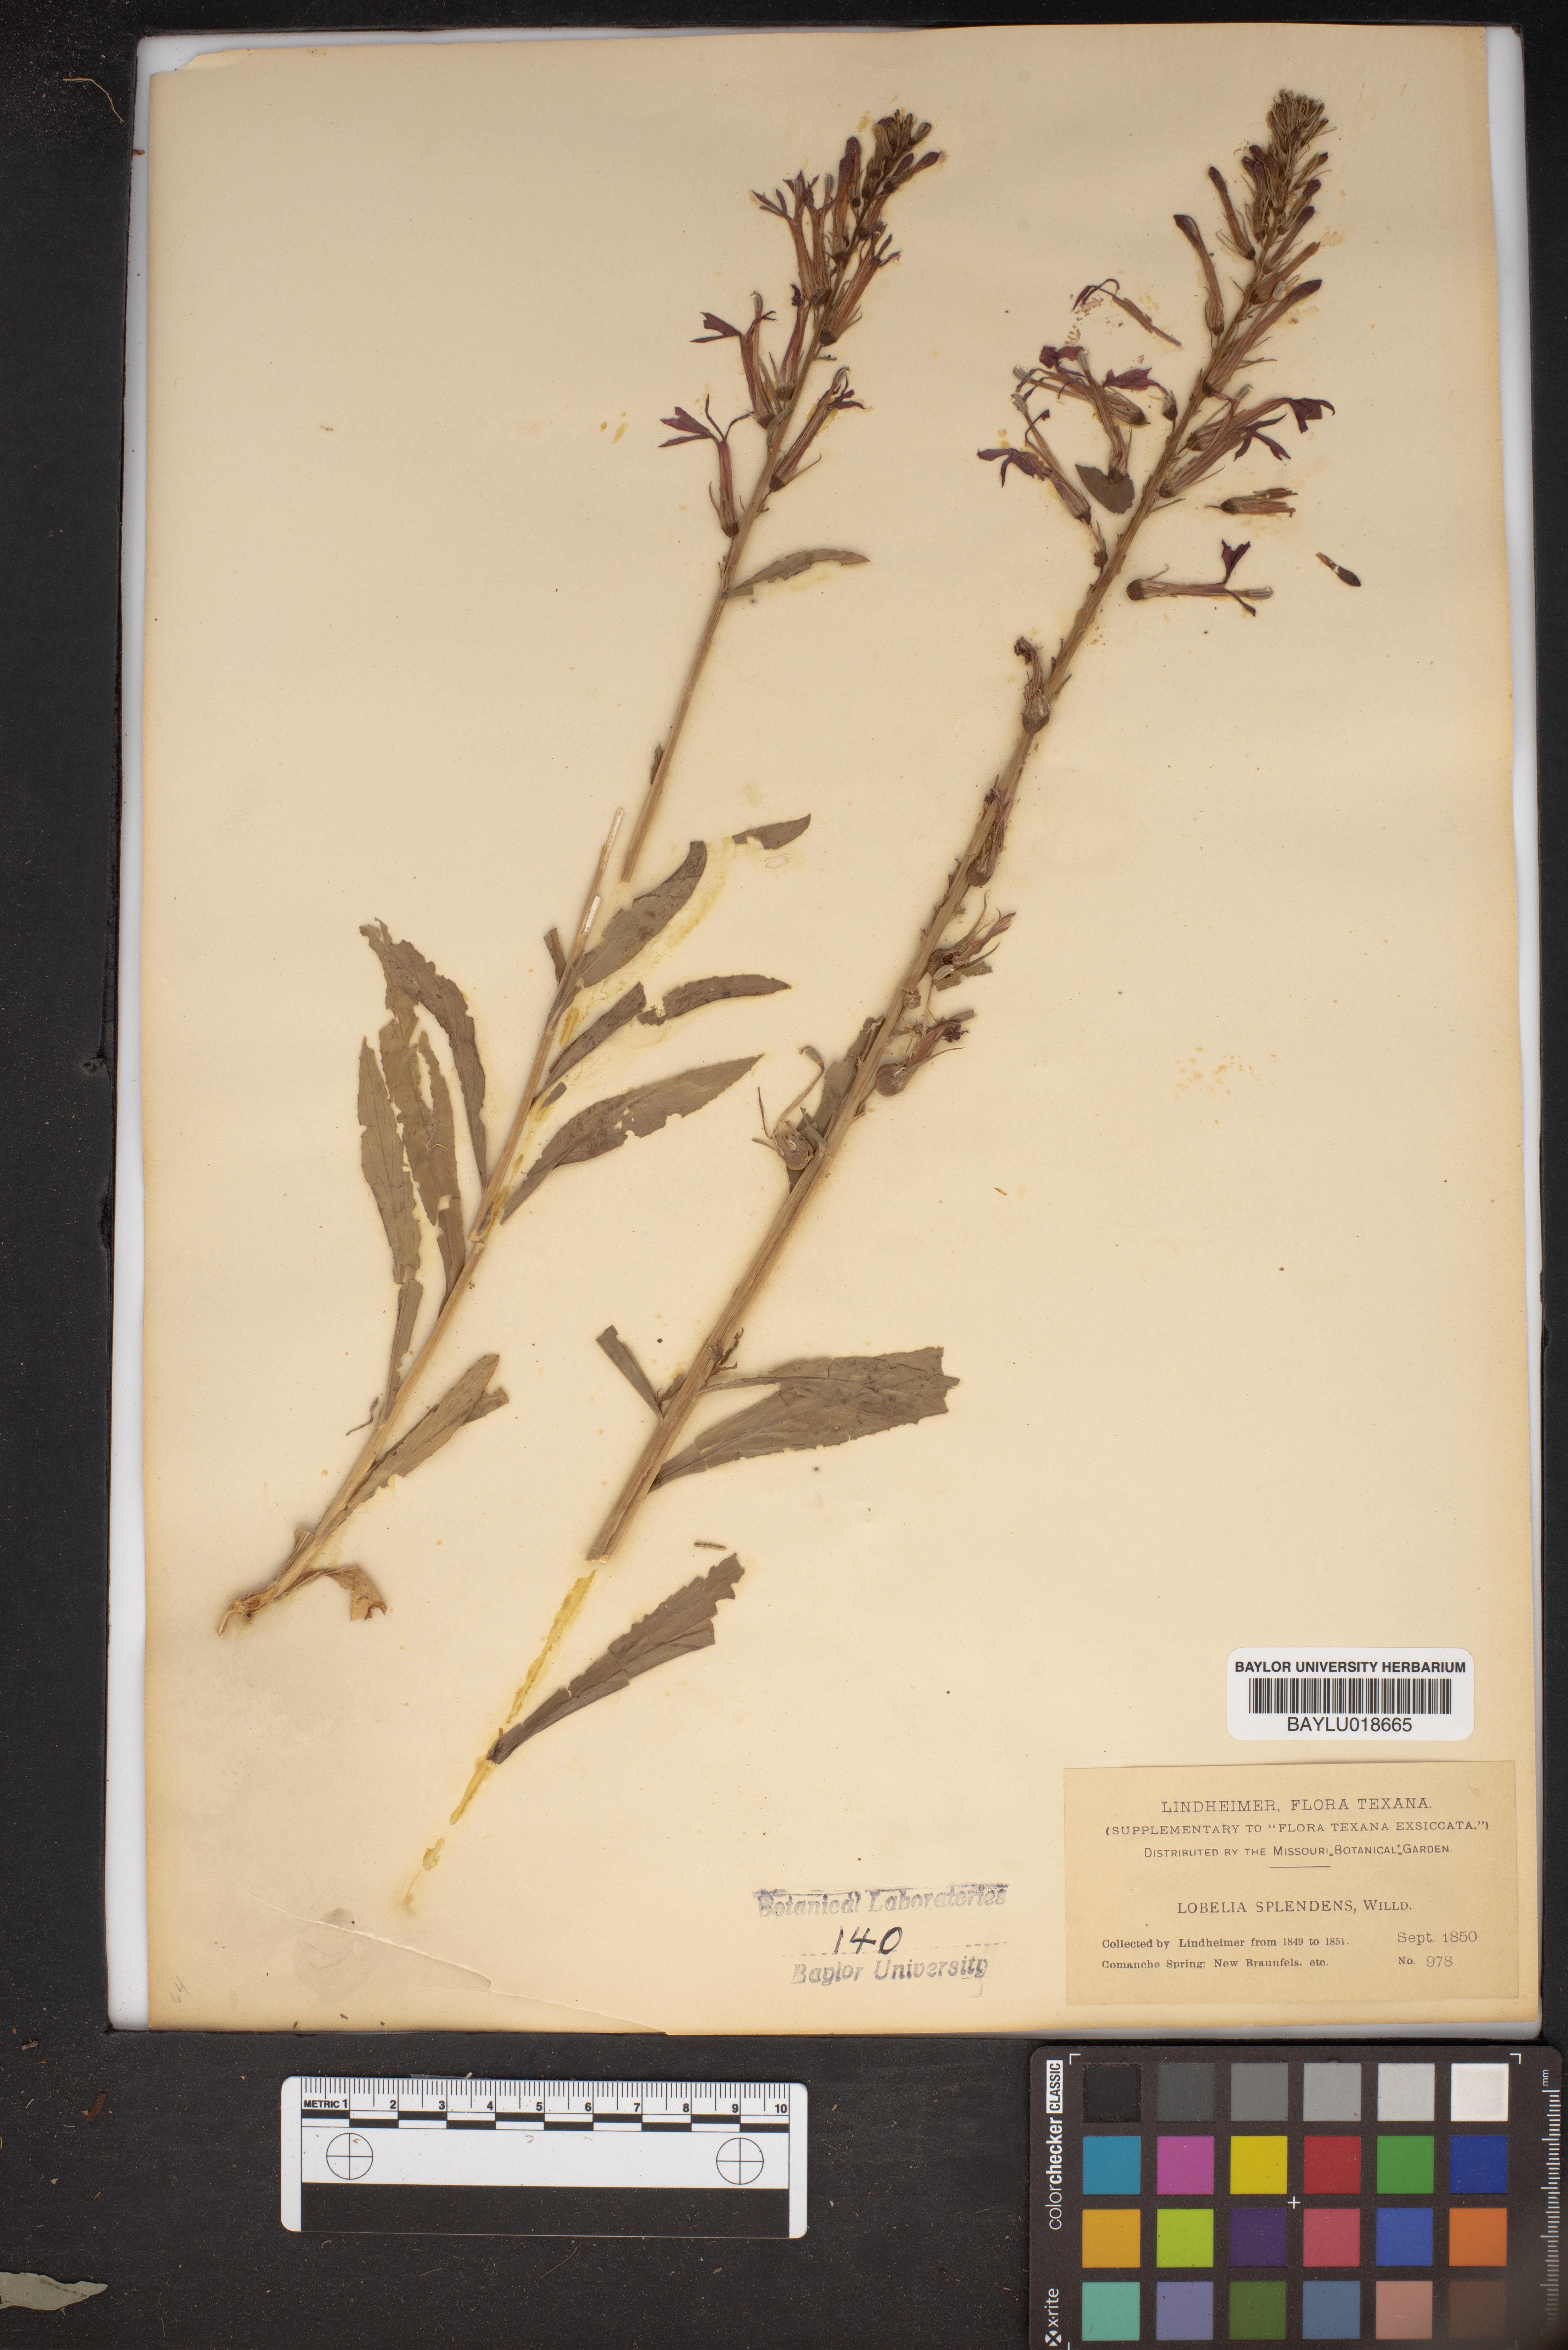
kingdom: Plantae
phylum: Tracheophyta
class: Magnoliopsida
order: Asterales
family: Campanulaceae
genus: Lobelia
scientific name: Lobelia cardinalis
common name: Cardinal flower
